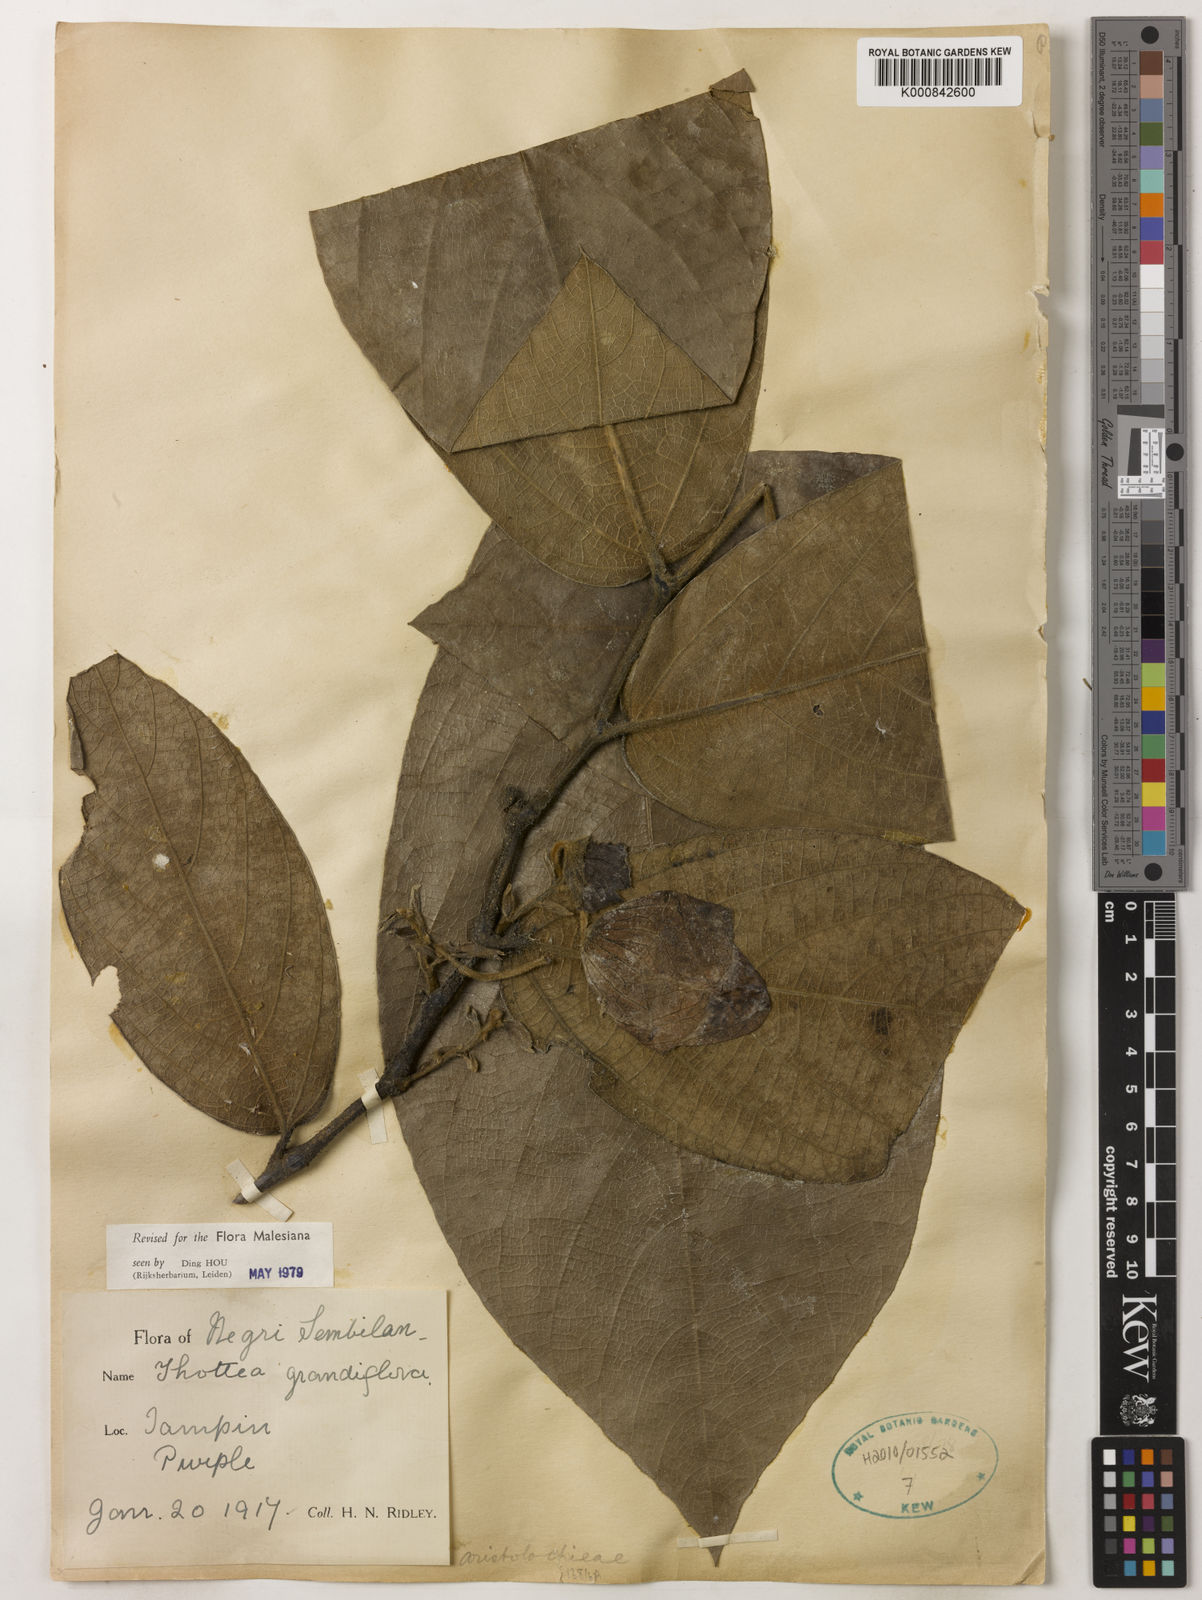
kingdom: Plantae
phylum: Tracheophyta
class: Magnoliopsida
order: Piperales
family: Aristolochiaceae
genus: Thottea
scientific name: Thottea grandiflora
